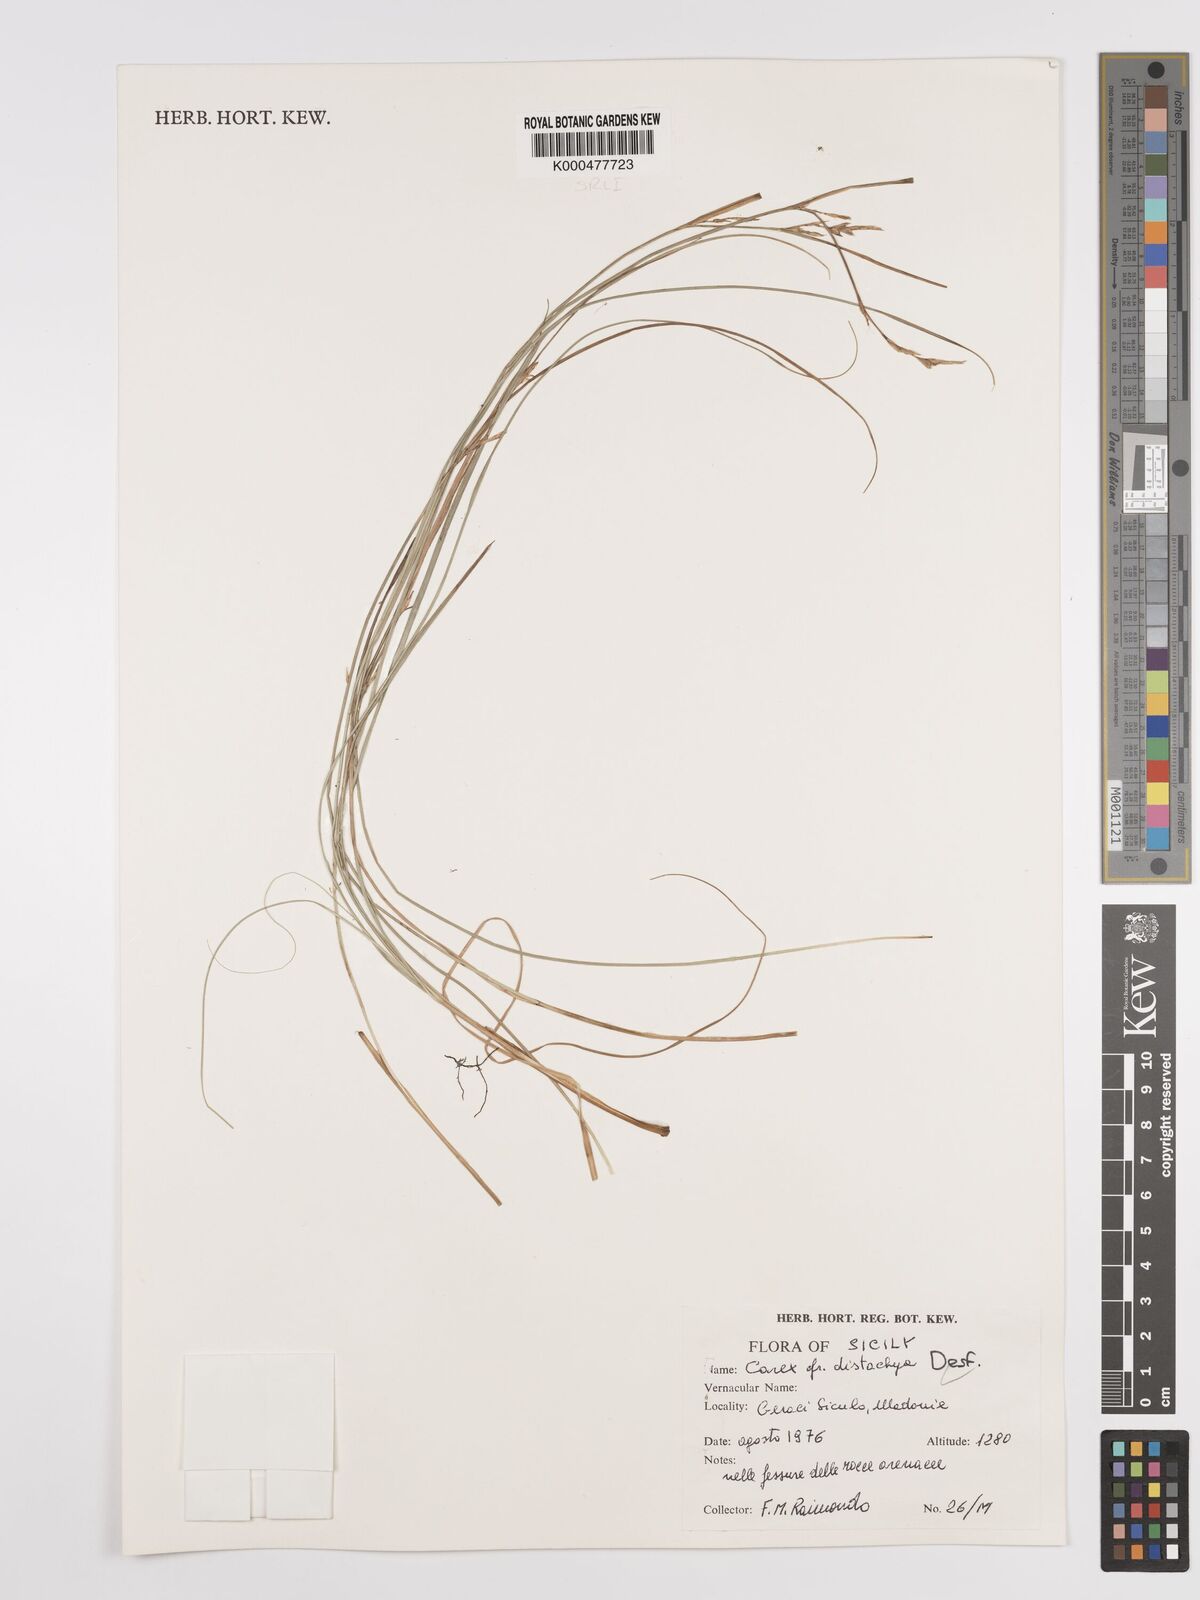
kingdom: Plantae
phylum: Tracheophyta
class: Liliopsida
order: Poales
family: Cyperaceae
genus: Carex
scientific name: Carex distachya
